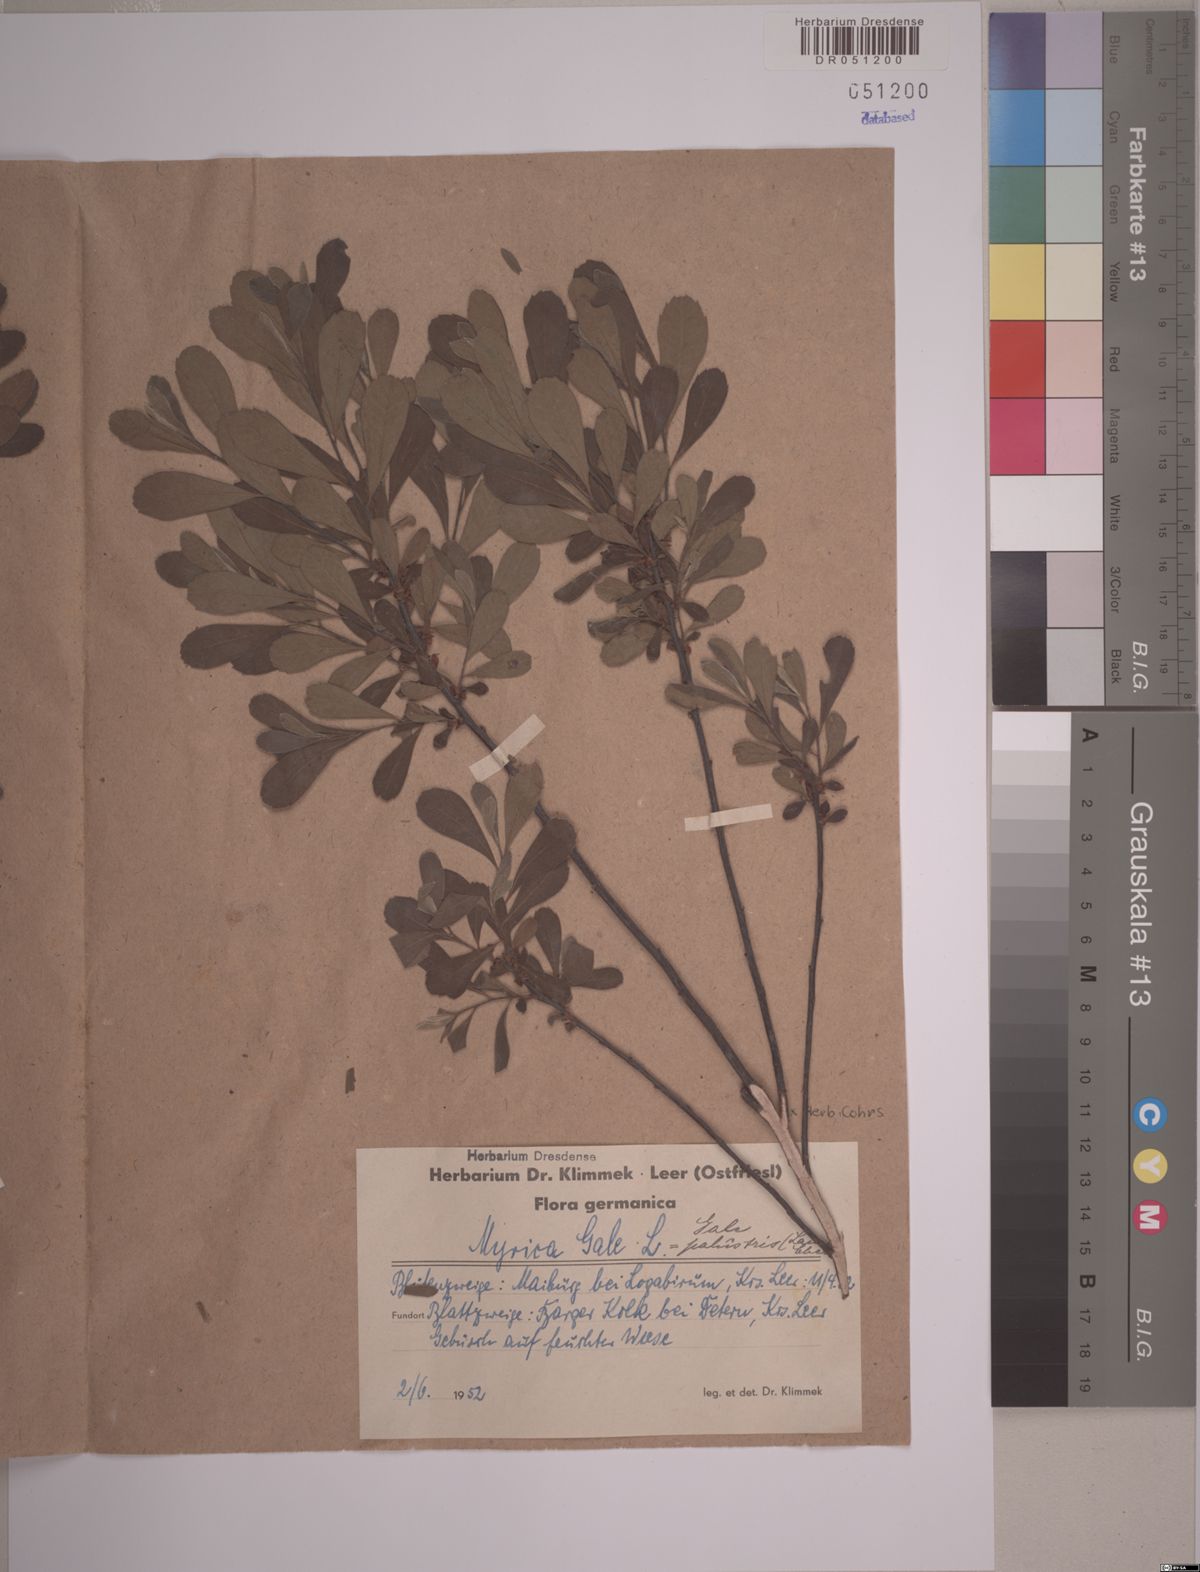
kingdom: Plantae
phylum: Tracheophyta
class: Magnoliopsida
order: Fagales
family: Myricaceae
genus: Myrica
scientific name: Myrica gale
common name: Sweet gale
